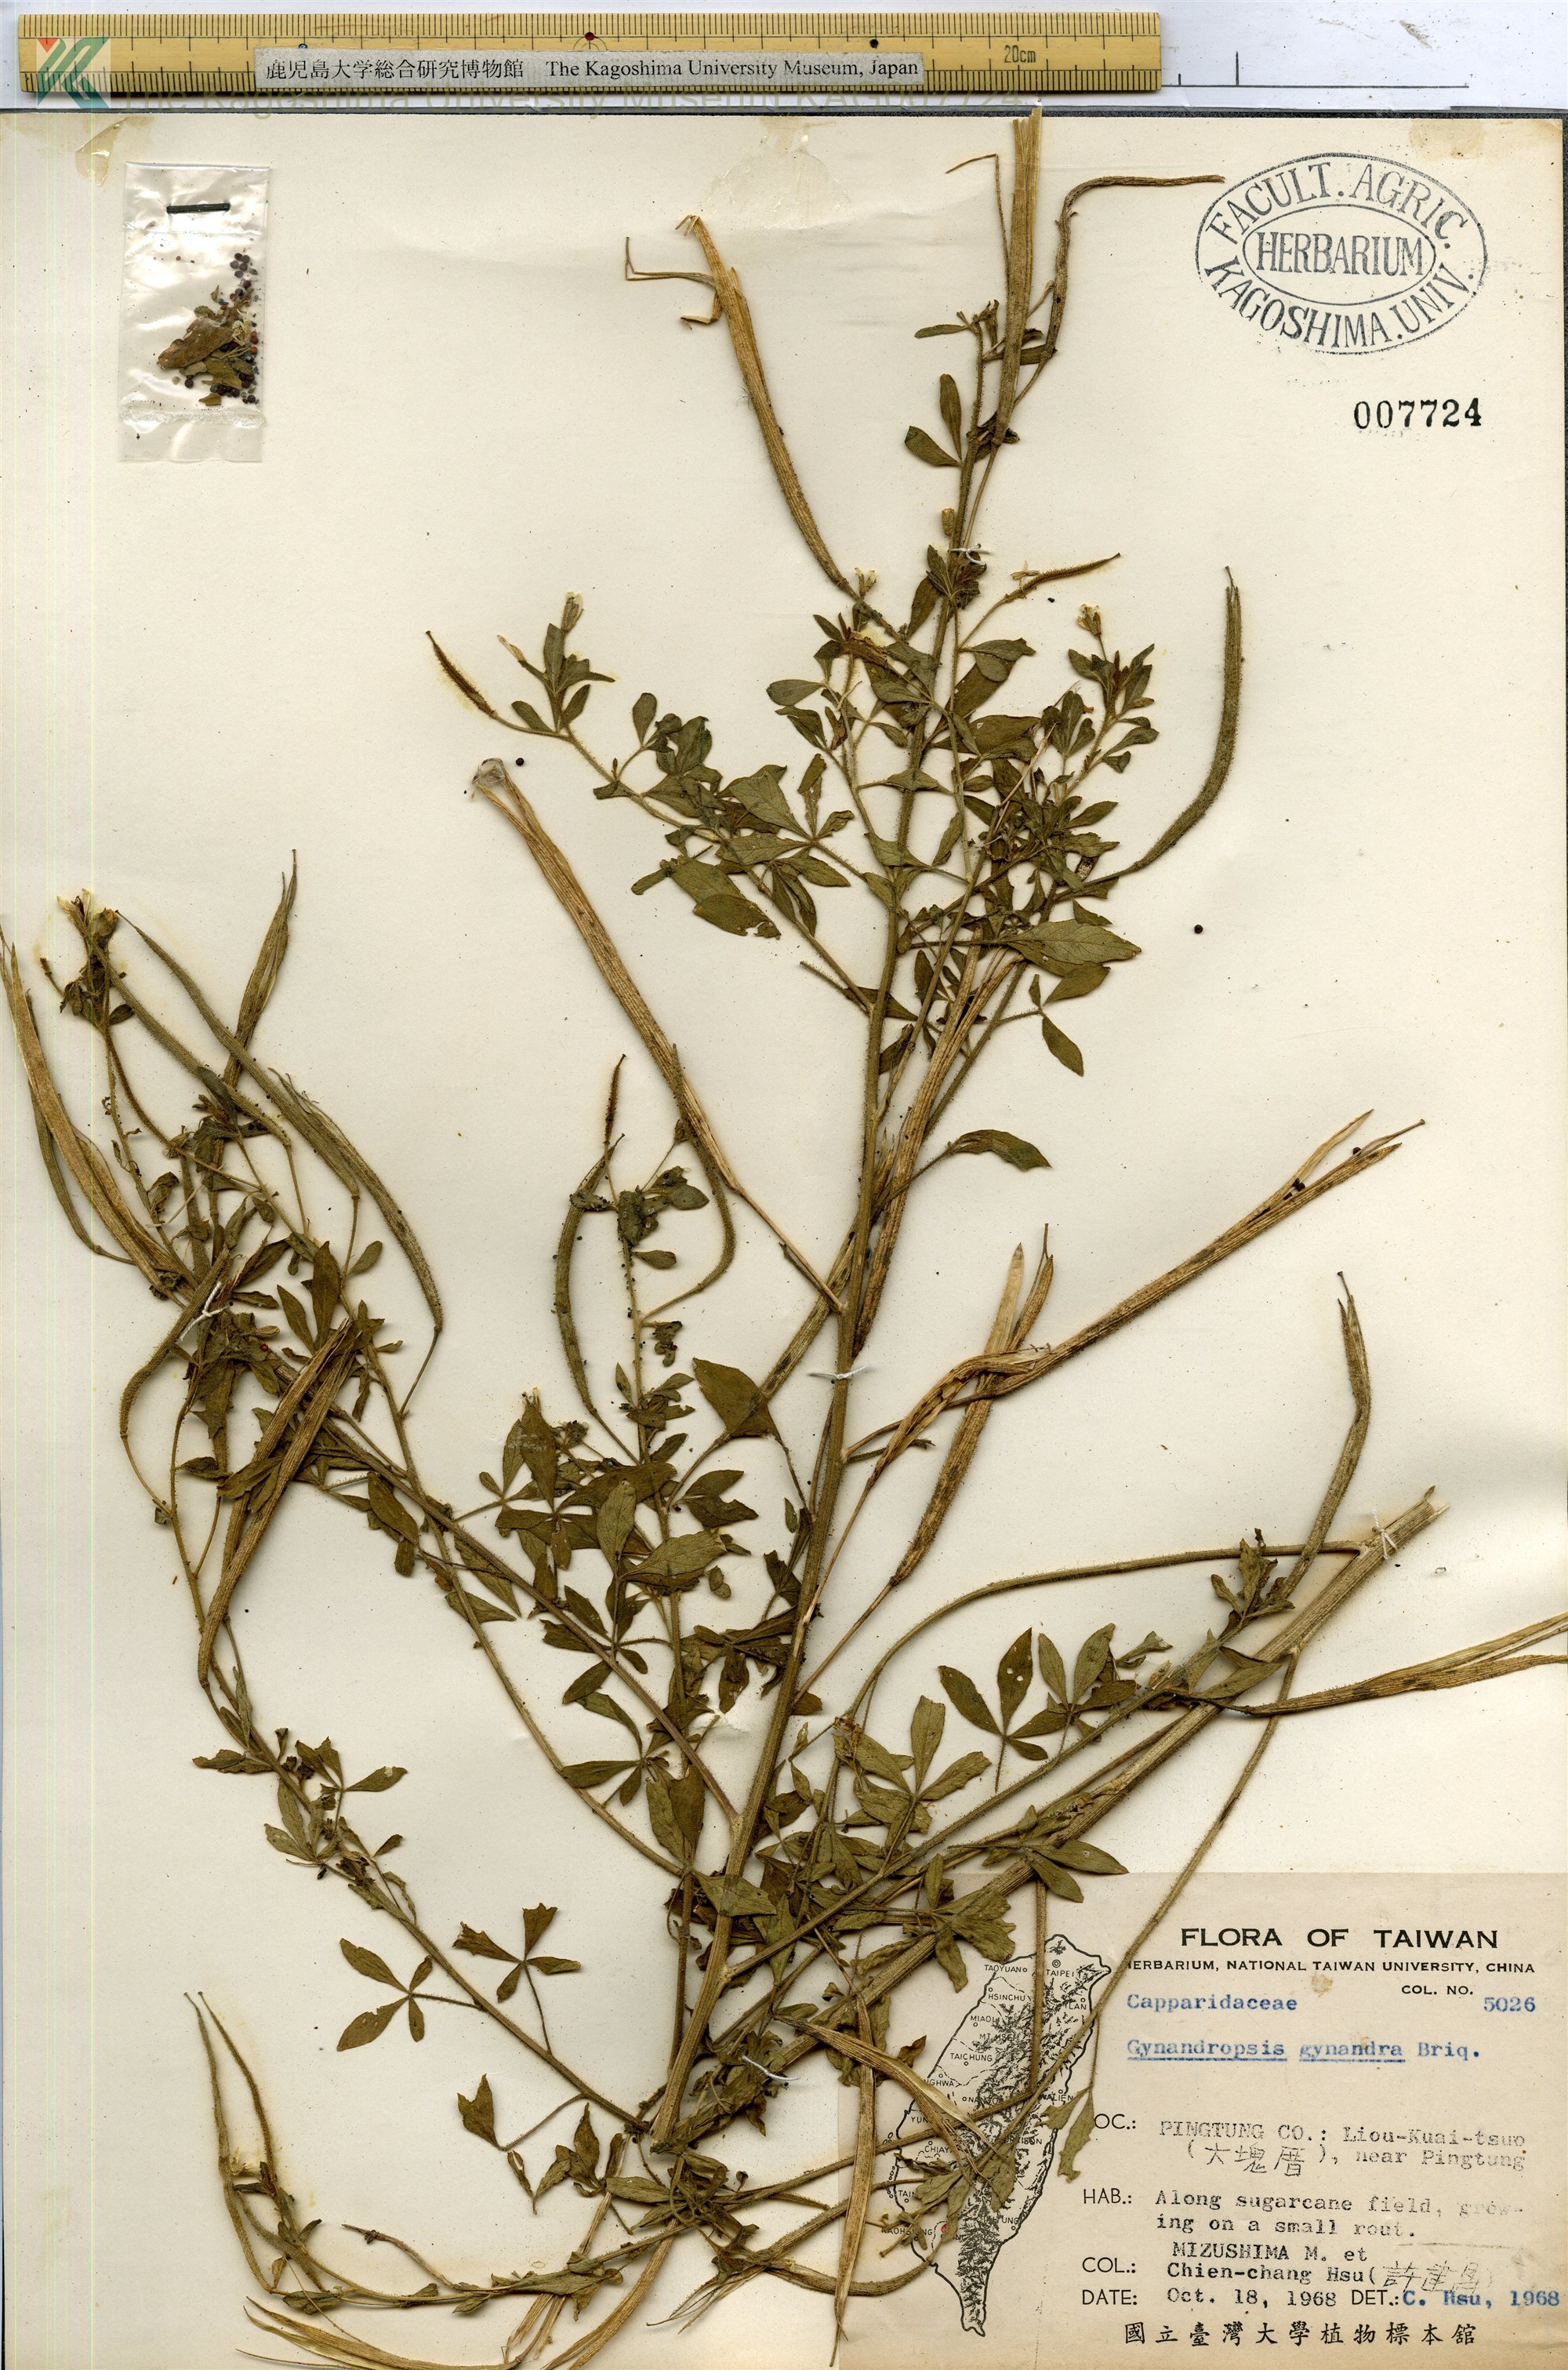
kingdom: Plantae
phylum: Tracheophyta
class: Magnoliopsida
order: Brassicales
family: Cleomaceae
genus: Gynandropsis
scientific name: Gynandropsis gynandra
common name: Spiderwisp
